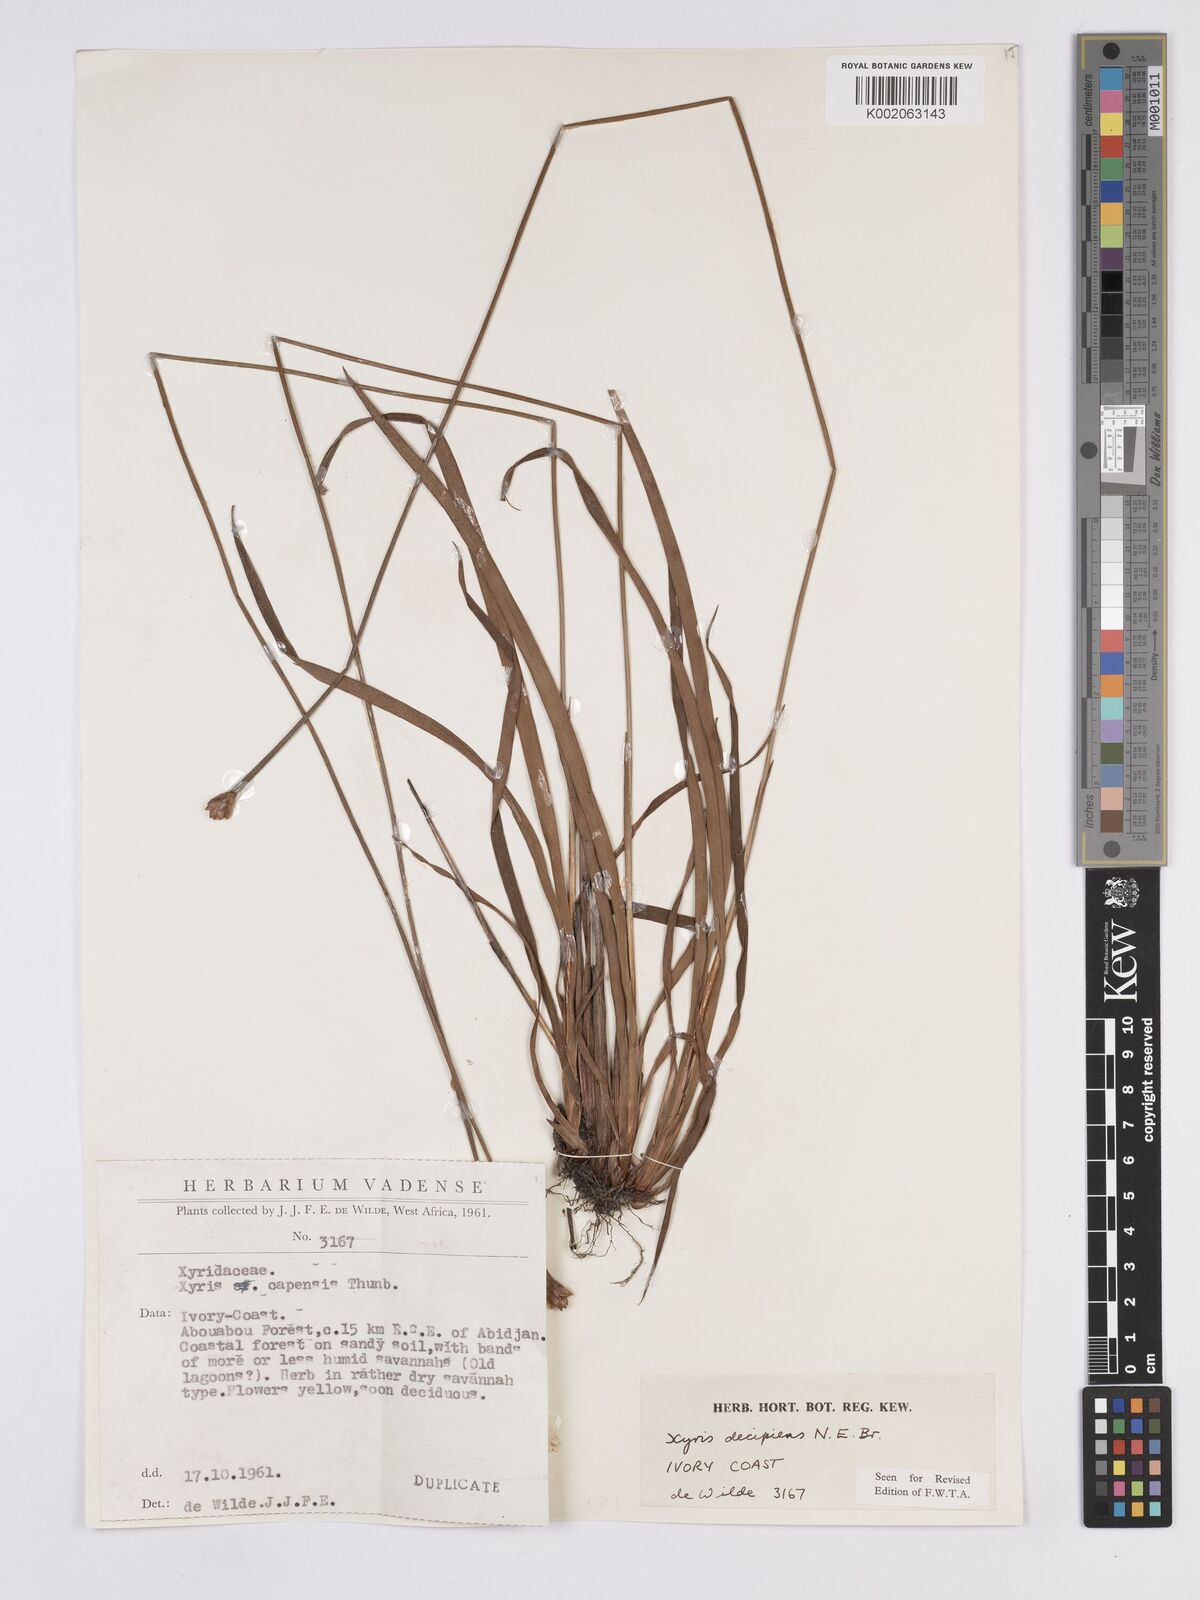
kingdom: Plantae
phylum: Tracheophyta
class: Liliopsida
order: Poales
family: Xyridaceae
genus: Xyris
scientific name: Xyris decipiens
